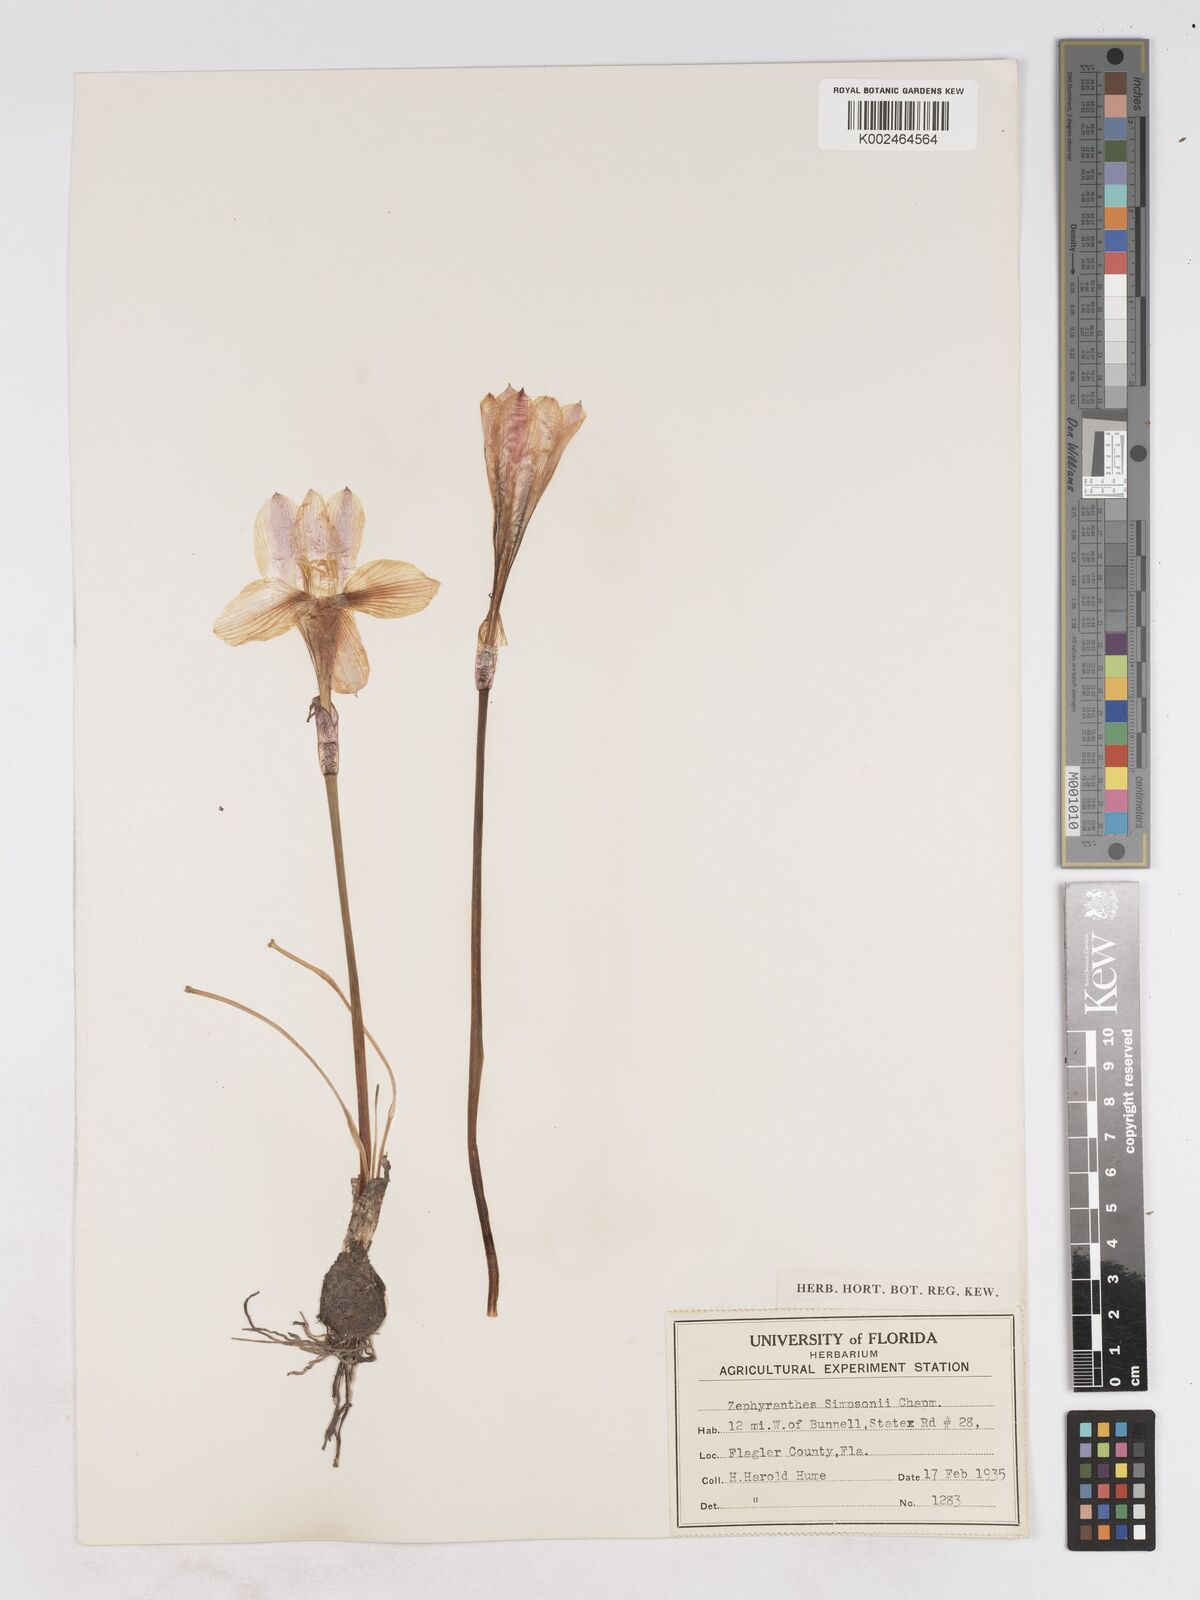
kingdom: Plantae
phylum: Tracheophyta
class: Liliopsida
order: Asparagales
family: Amaryllidaceae
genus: Zephyranthes
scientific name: Zephyranthes simpsonii
